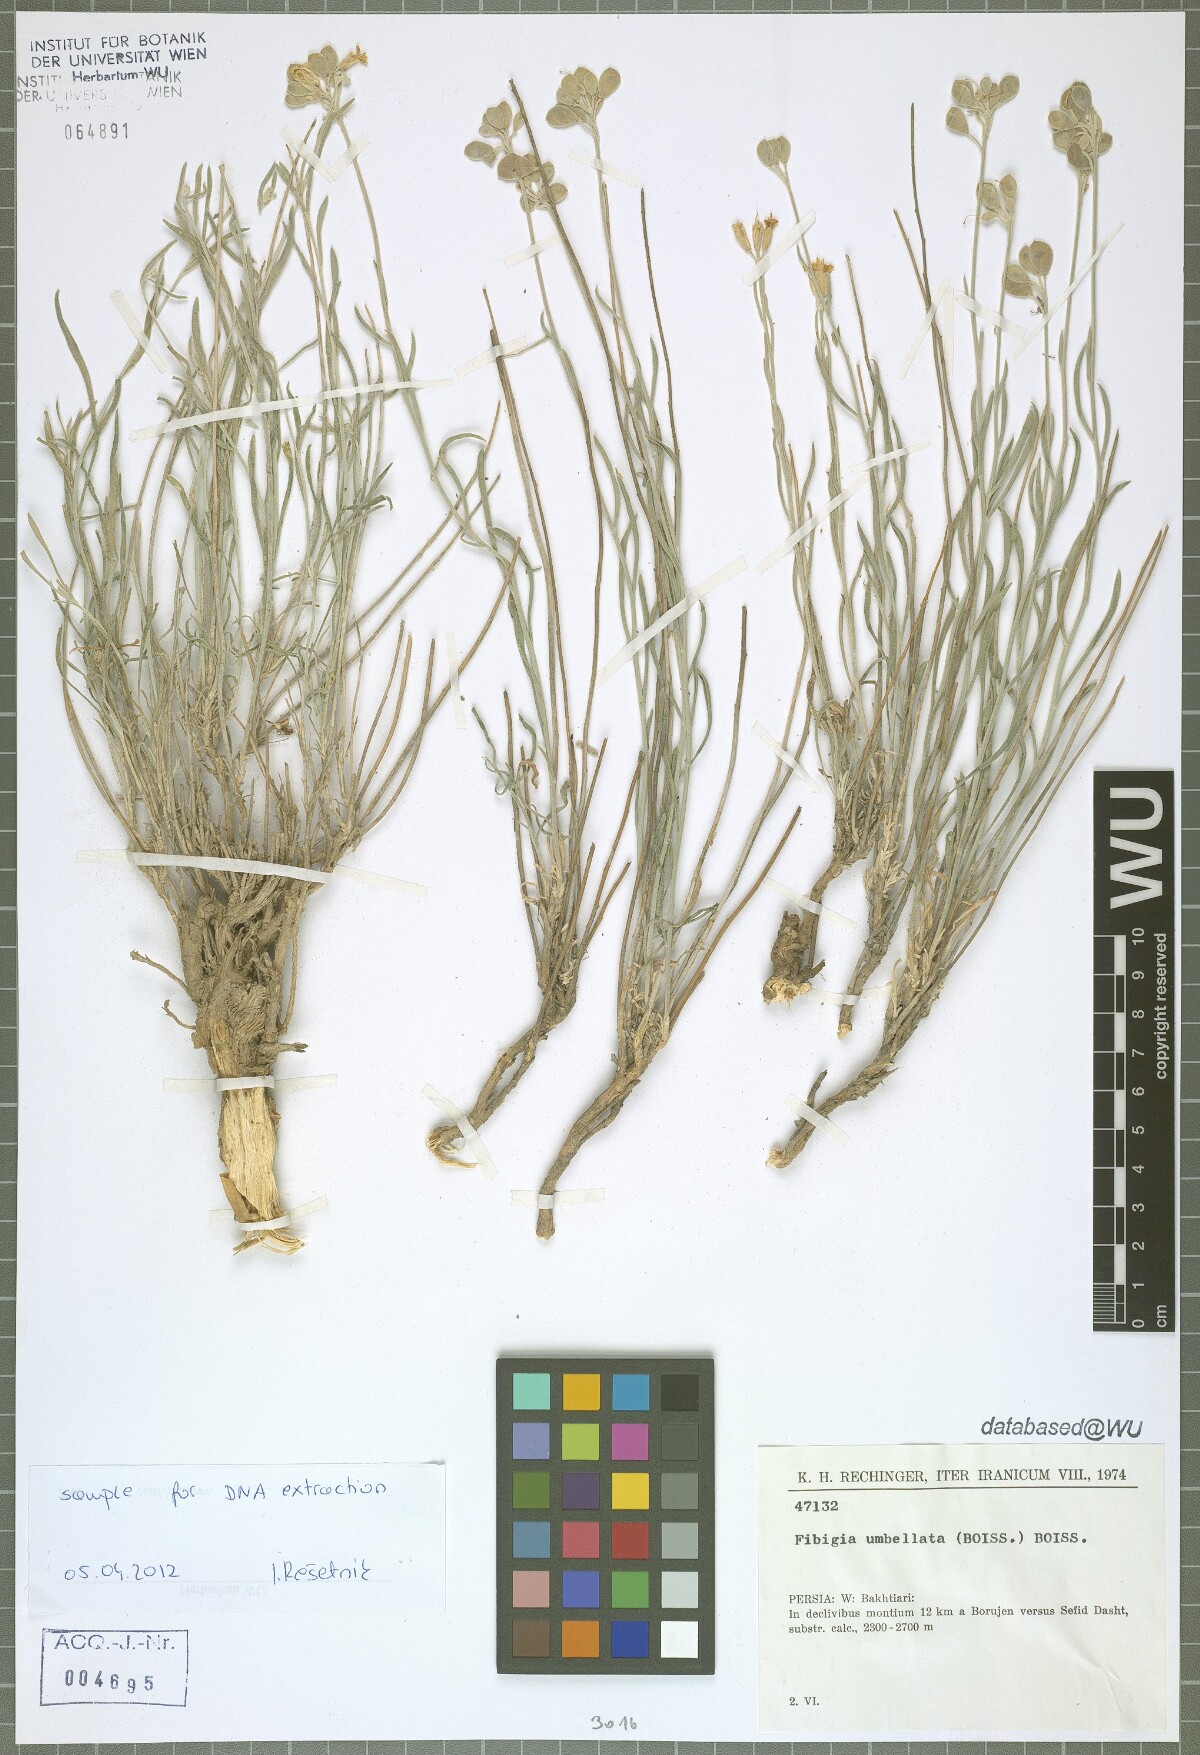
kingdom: Plantae
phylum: Tracheophyta
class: Magnoliopsida
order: Brassicales
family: Brassicaceae
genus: Irania
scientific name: Irania umbellata
